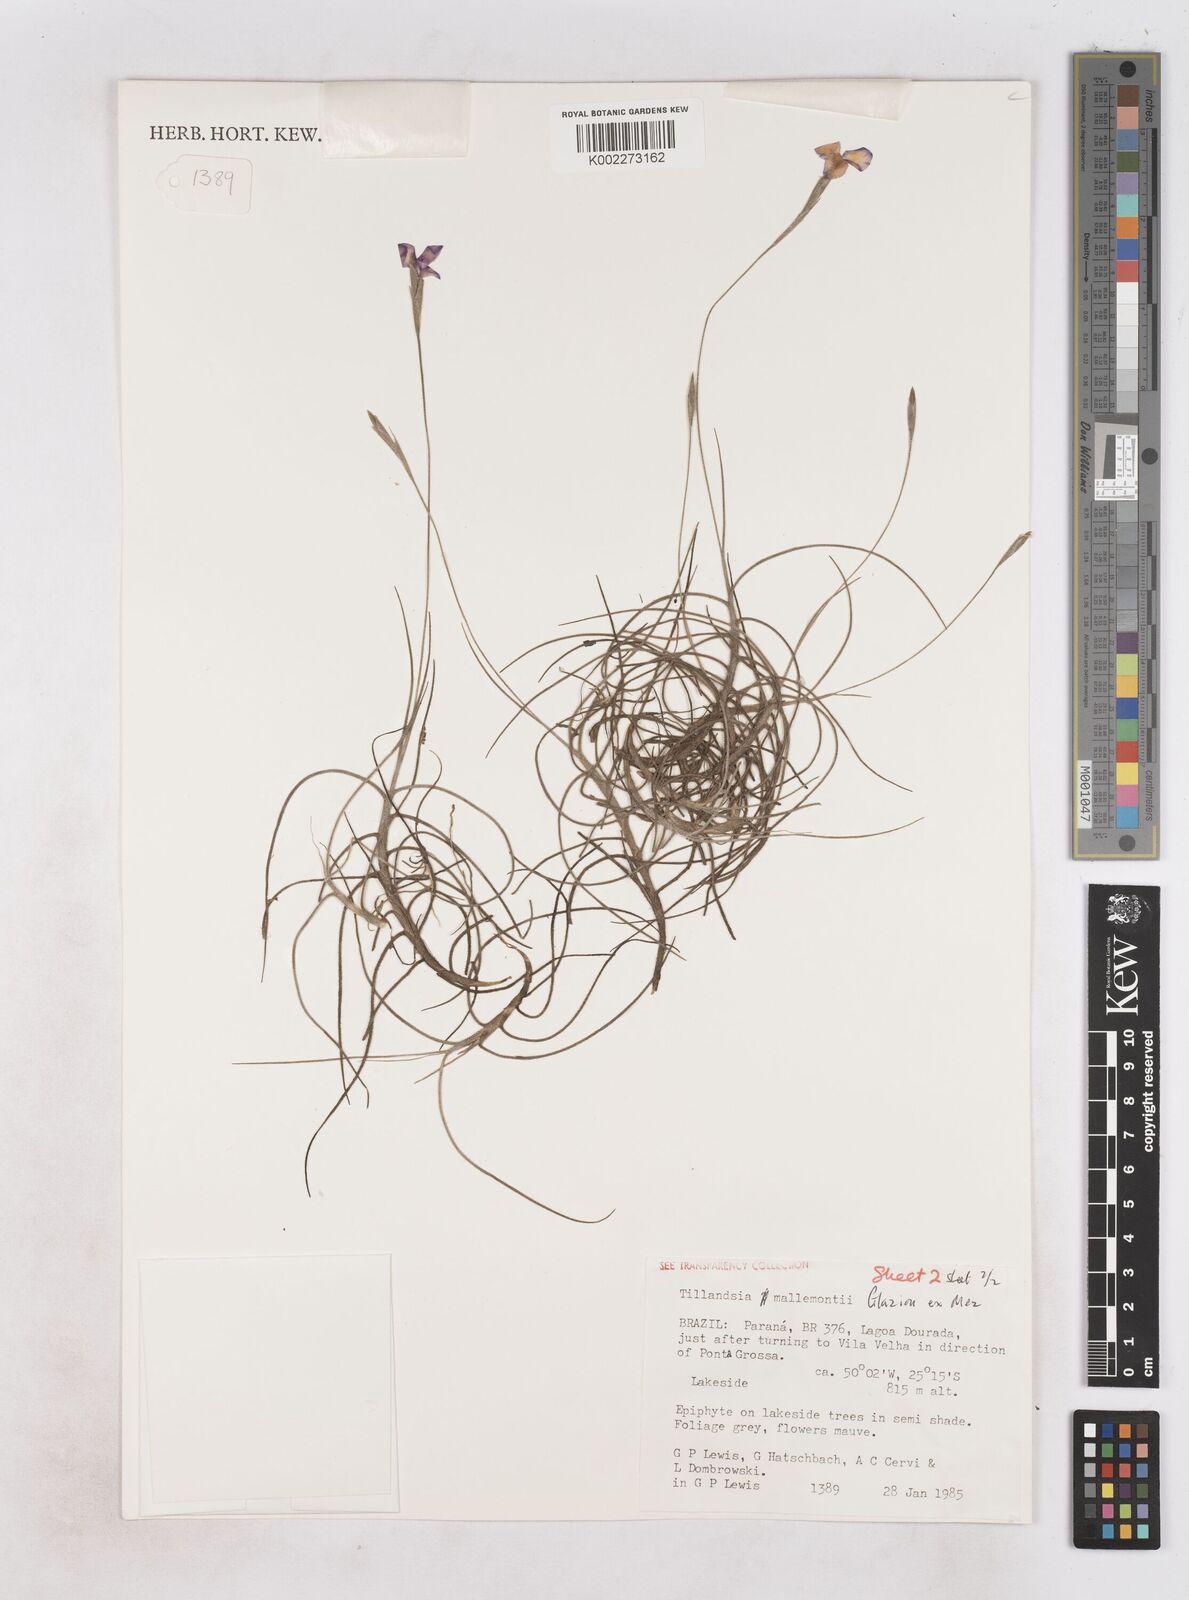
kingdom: Plantae
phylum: Tracheophyta
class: Liliopsida
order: Poales
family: Bromeliaceae
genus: Tillandsia
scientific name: Tillandsia mallemontii
